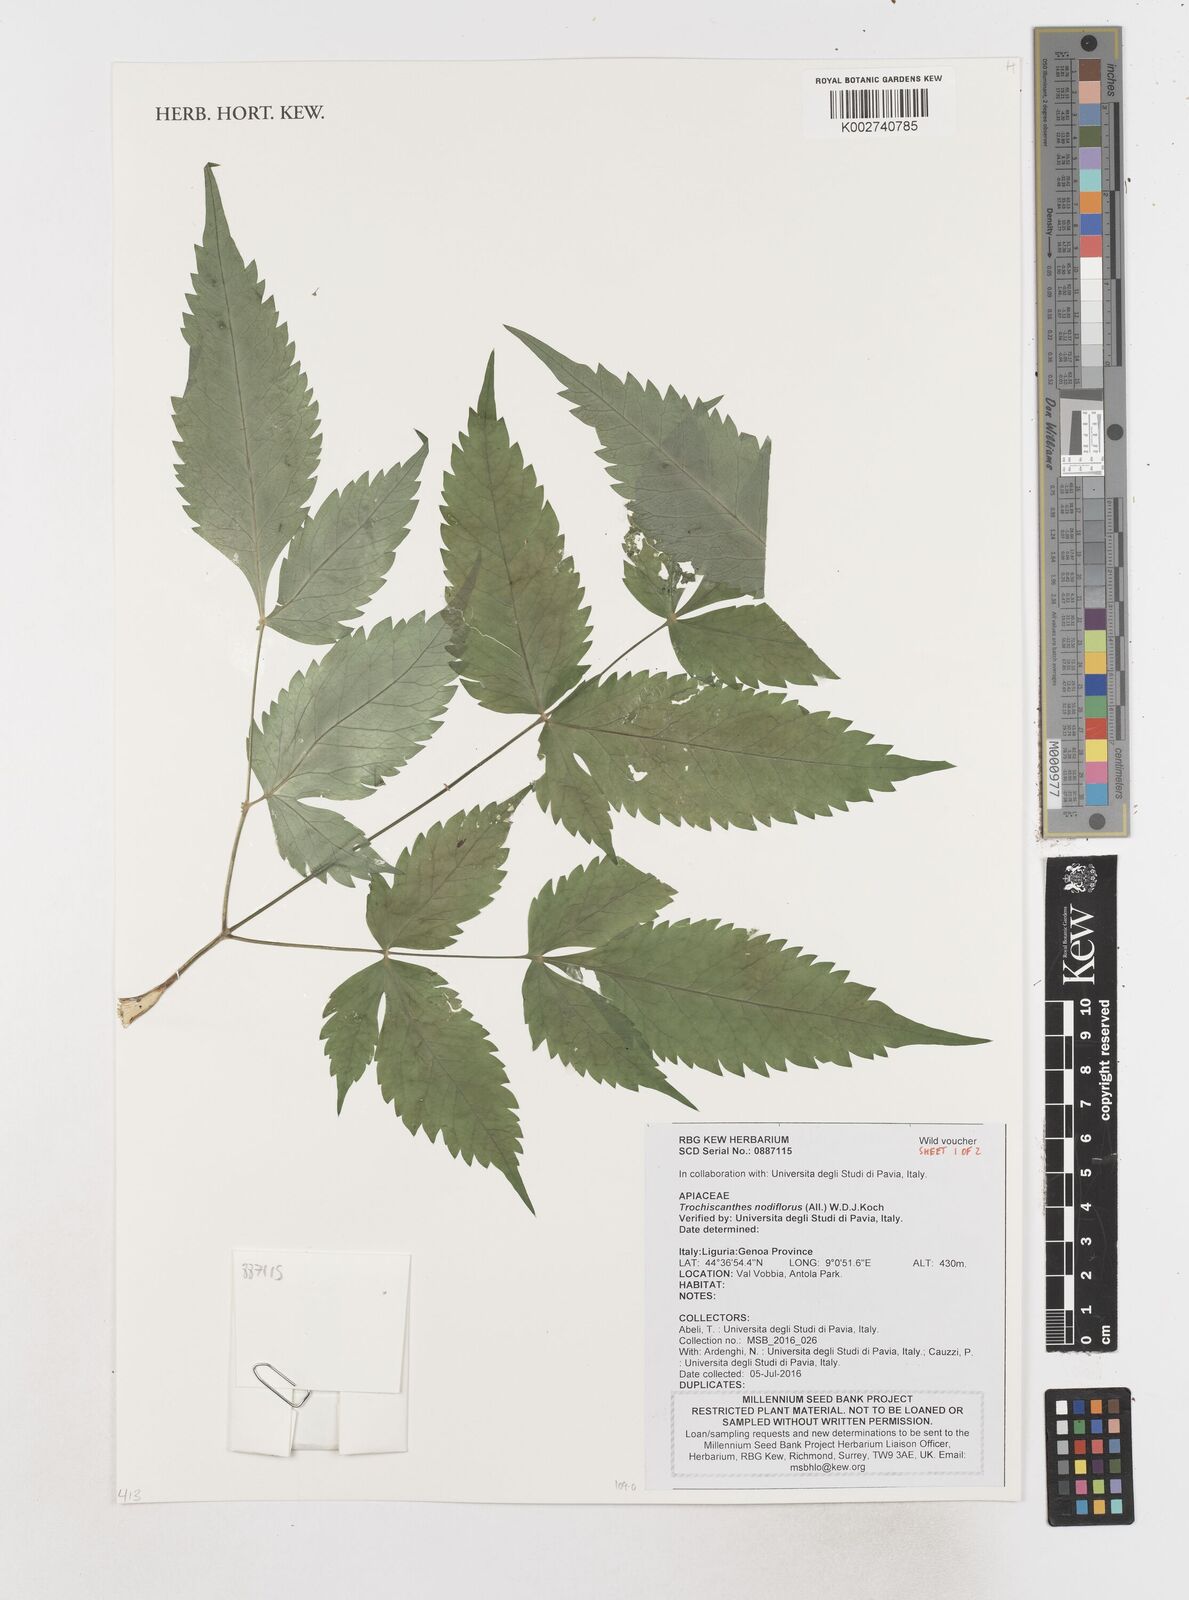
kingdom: Plantae
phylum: Tracheophyta
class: Magnoliopsida
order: Apiales
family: Apiaceae
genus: Trochiscanthes
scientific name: Trochiscanthes nodiflora
